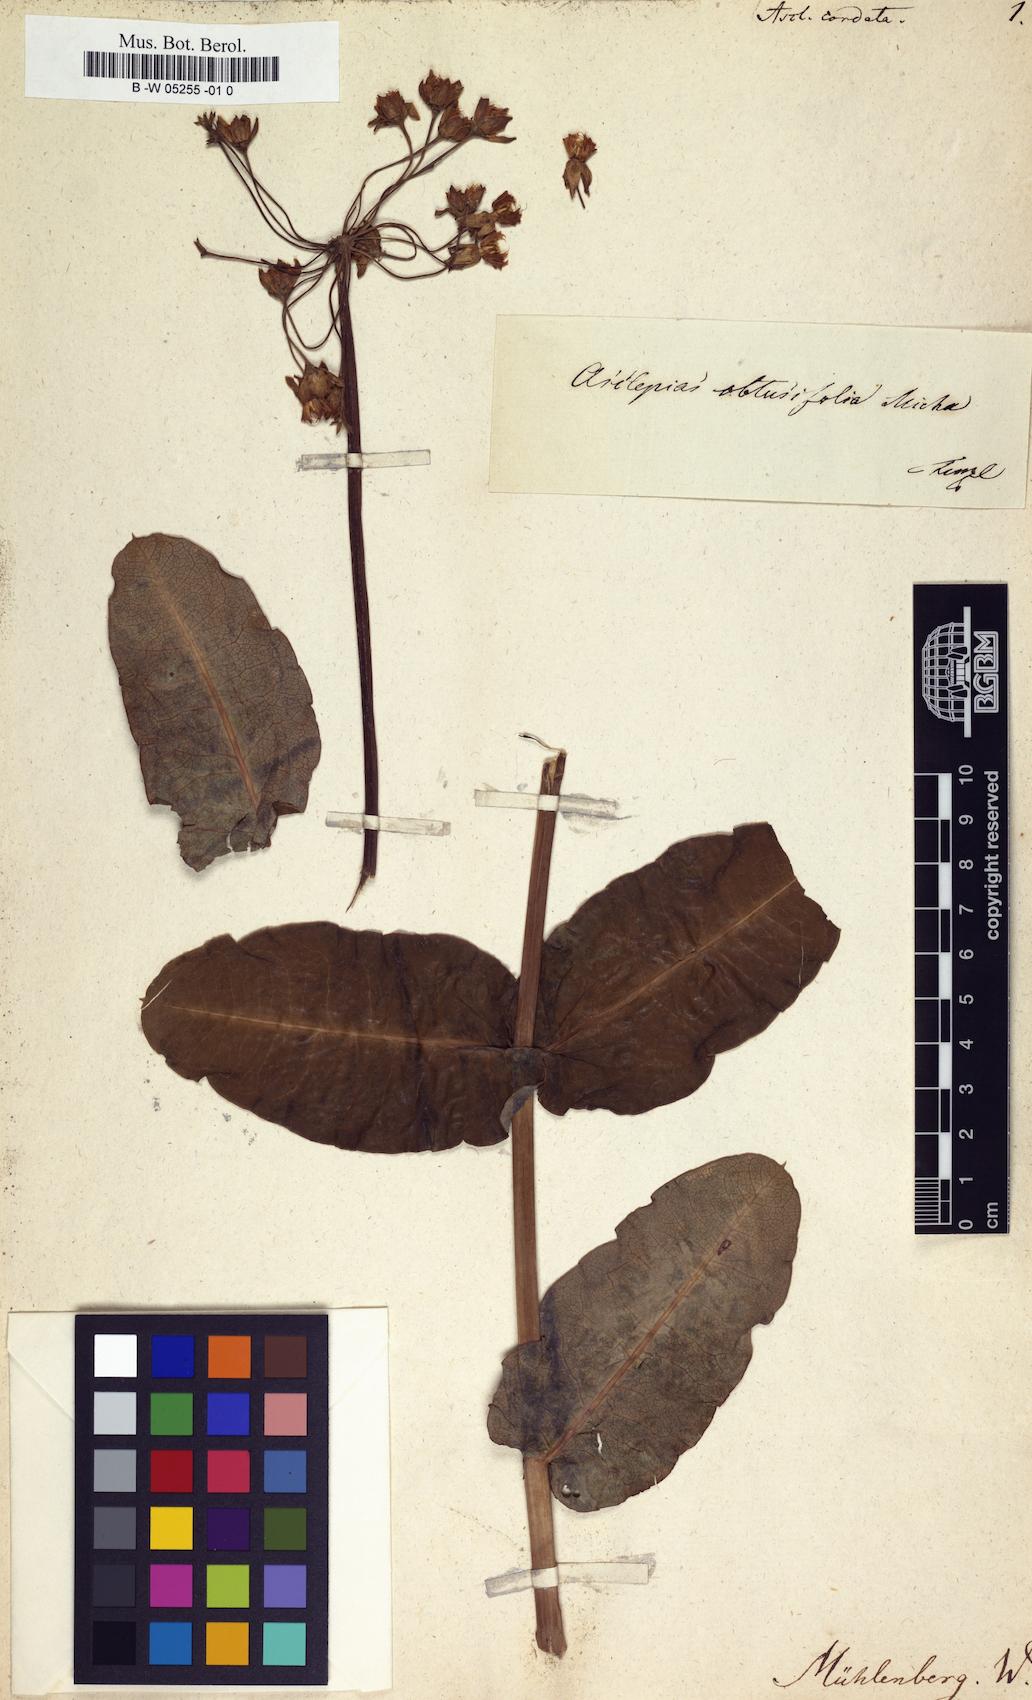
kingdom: Plantae
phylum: Tracheophyta
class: Magnoliopsida
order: Gentianales
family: Apocynaceae
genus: Telosma
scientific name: Telosma cordata
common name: Chinese-violet
